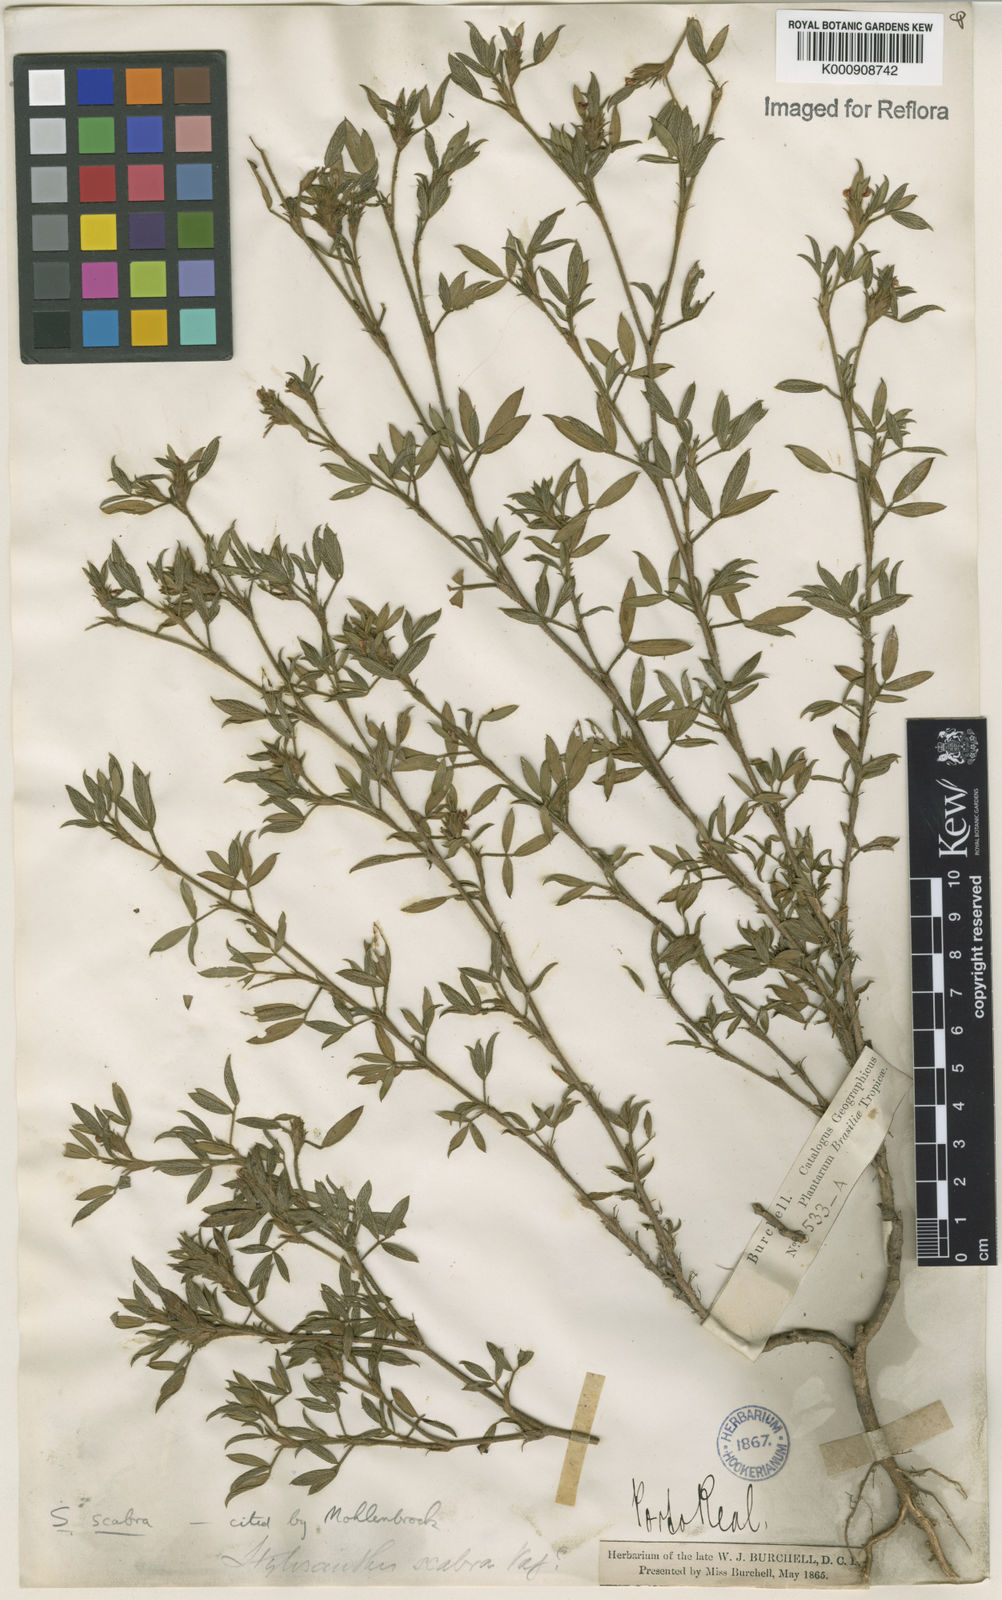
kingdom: Plantae
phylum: Tracheophyta
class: Magnoliopsida
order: Fabales
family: Fabaceae
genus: Stylosanthes
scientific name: Stylosanthes scabra
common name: Pencilflower
